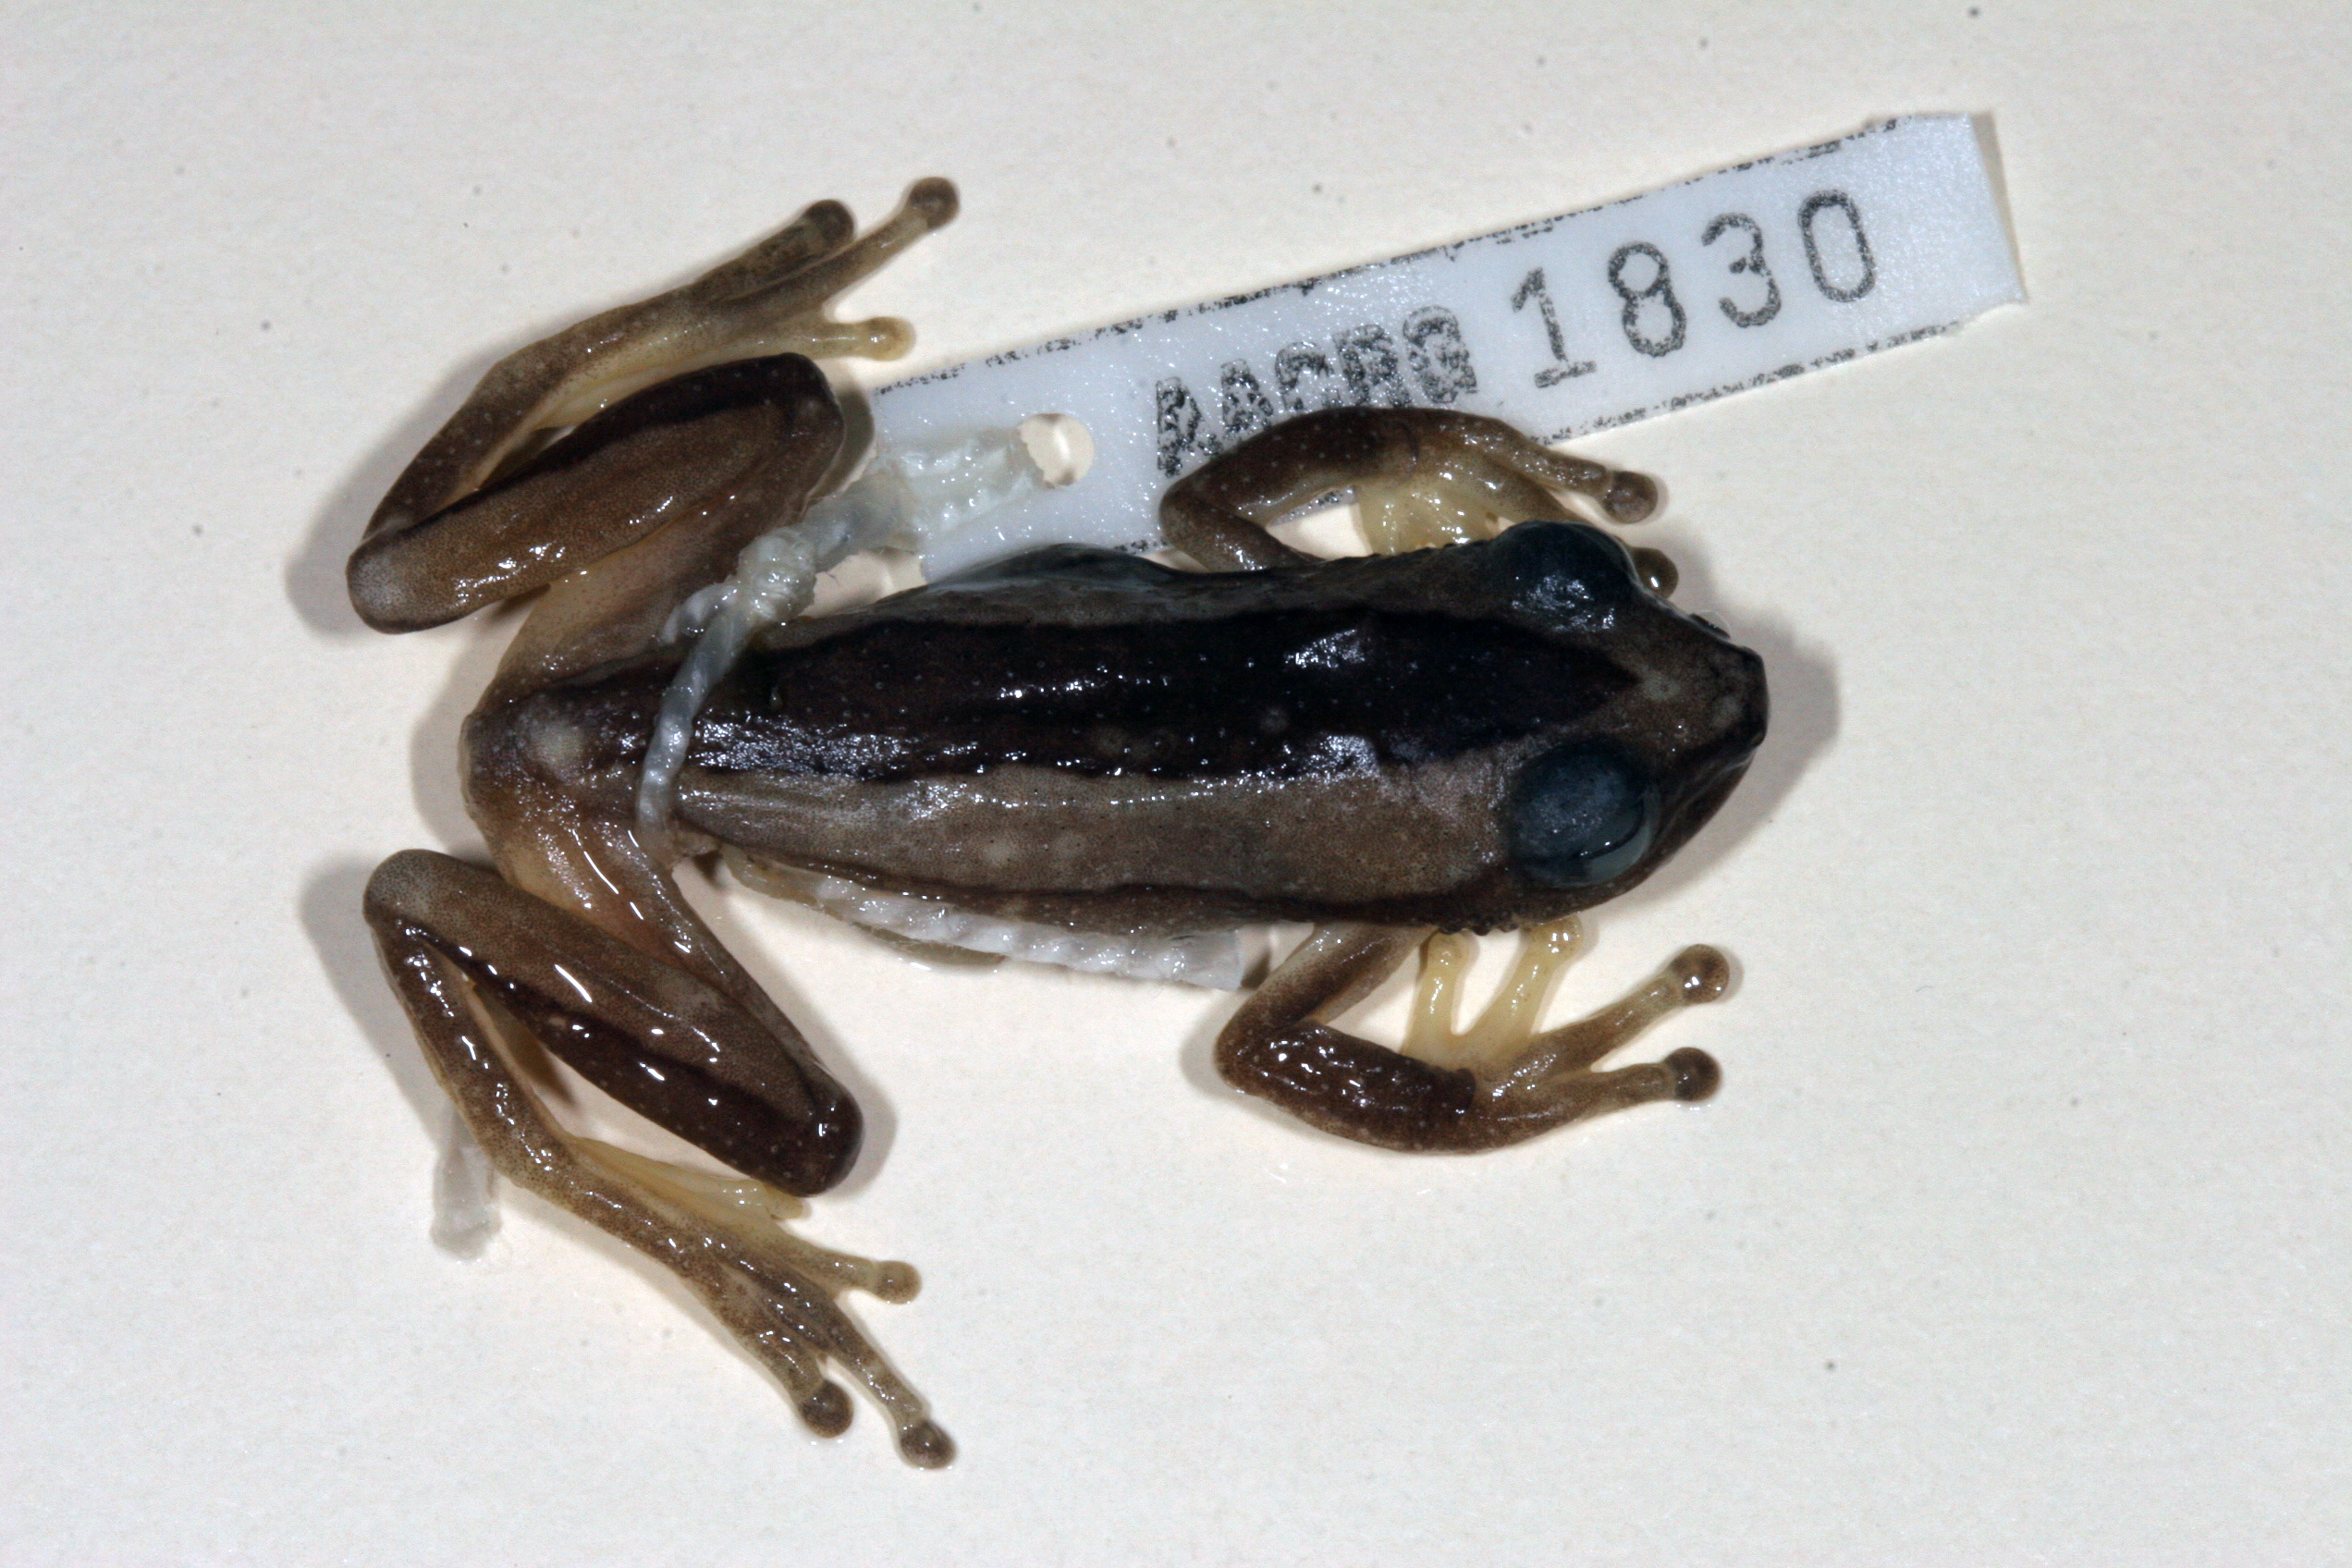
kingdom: Animalia
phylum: Chordata
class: Amphibia
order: Anura
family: Hyperoliidae
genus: Afrixalus
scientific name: Afrixalus fornasini
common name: Fornasini's spiny reed frog
